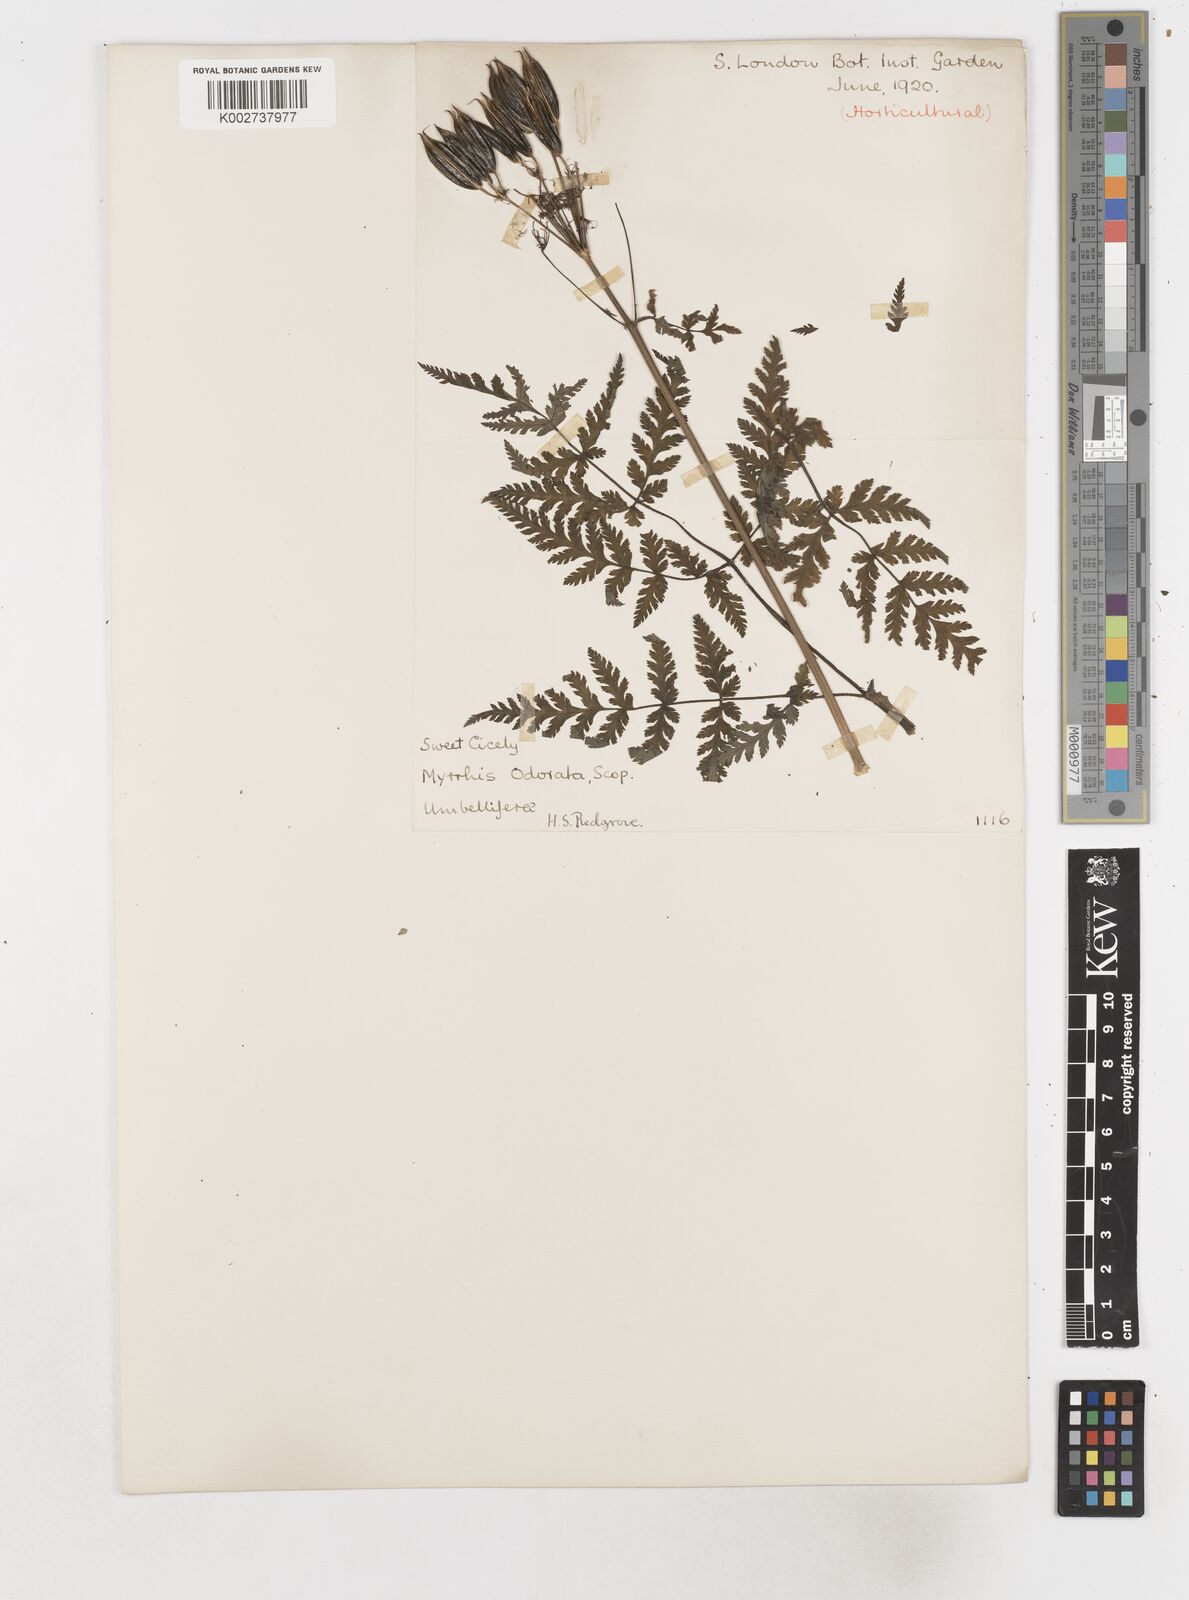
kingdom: Plantae
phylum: Tracheophyta
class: Magnoliopsida
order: Apiales
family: Apiaceae
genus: Myrrhis
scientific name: Myrrhis odorata
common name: Sweet cicely
